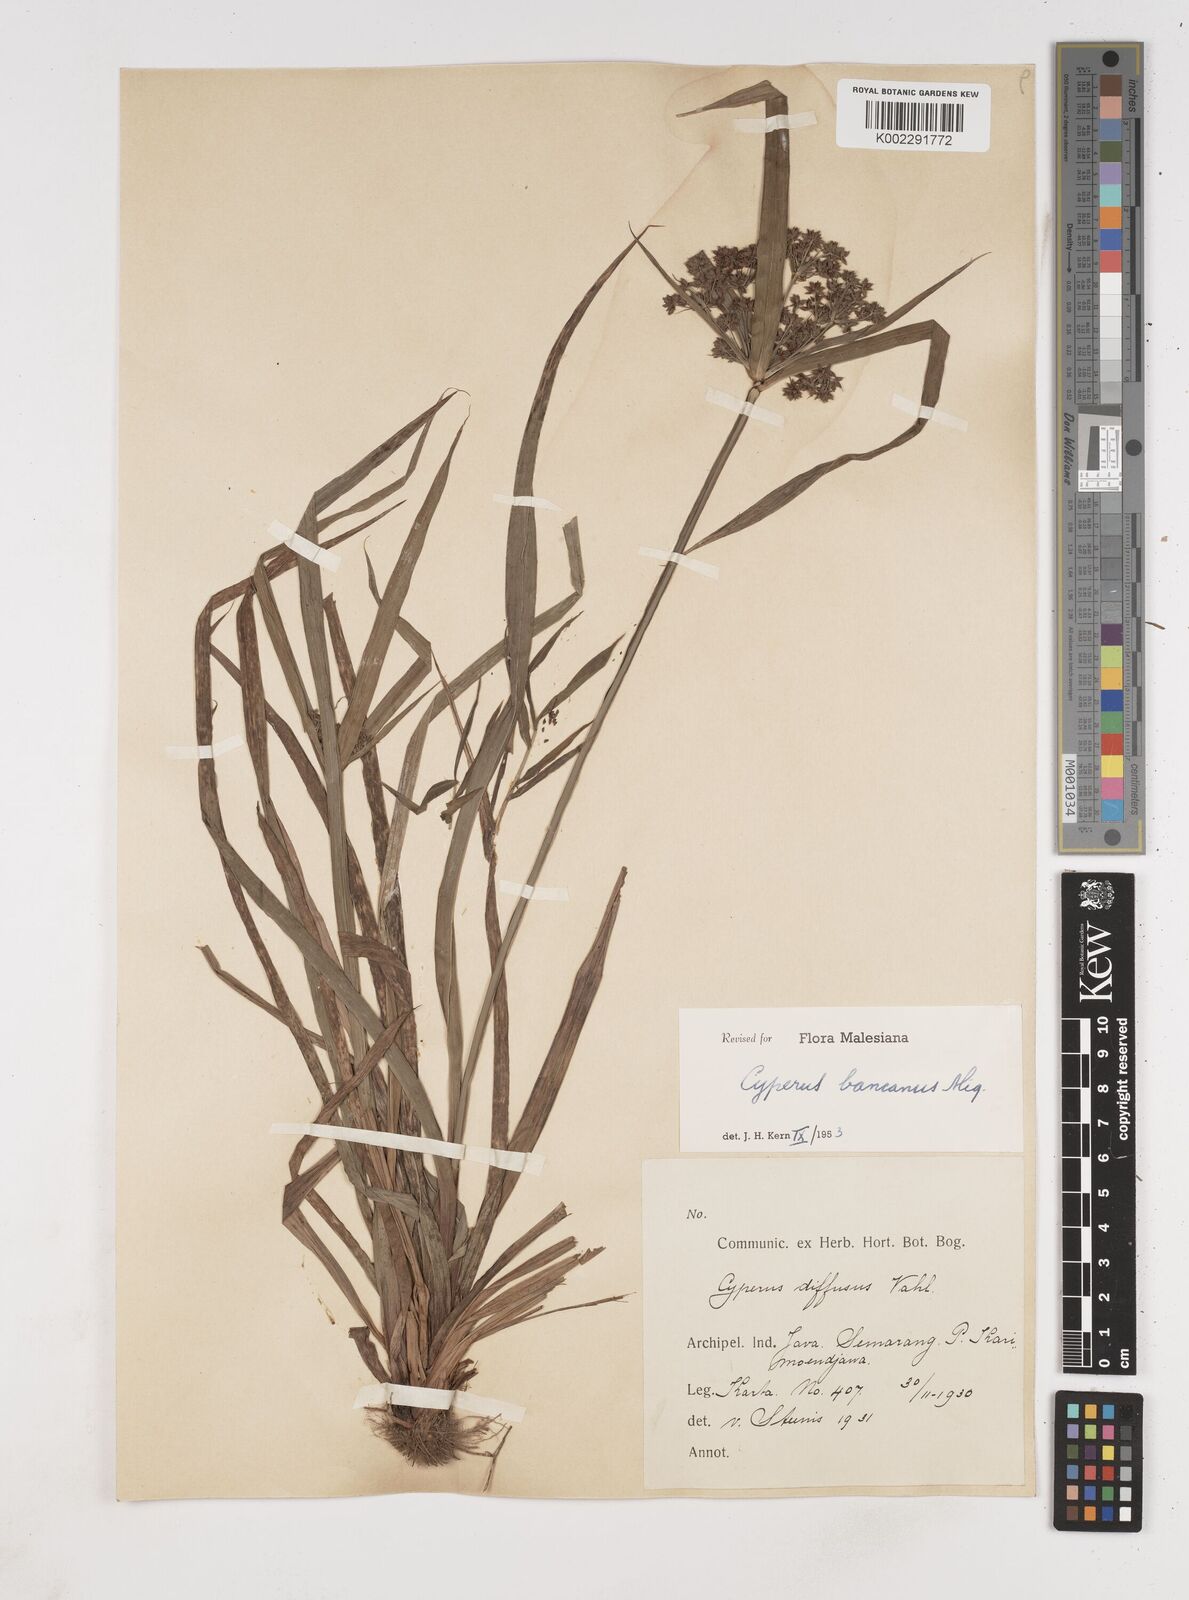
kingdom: Plantae
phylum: Tracheophyta
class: Liliopsida
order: Poales
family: Cyperaceae
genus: Cyperus
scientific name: Cyperus trialatus
